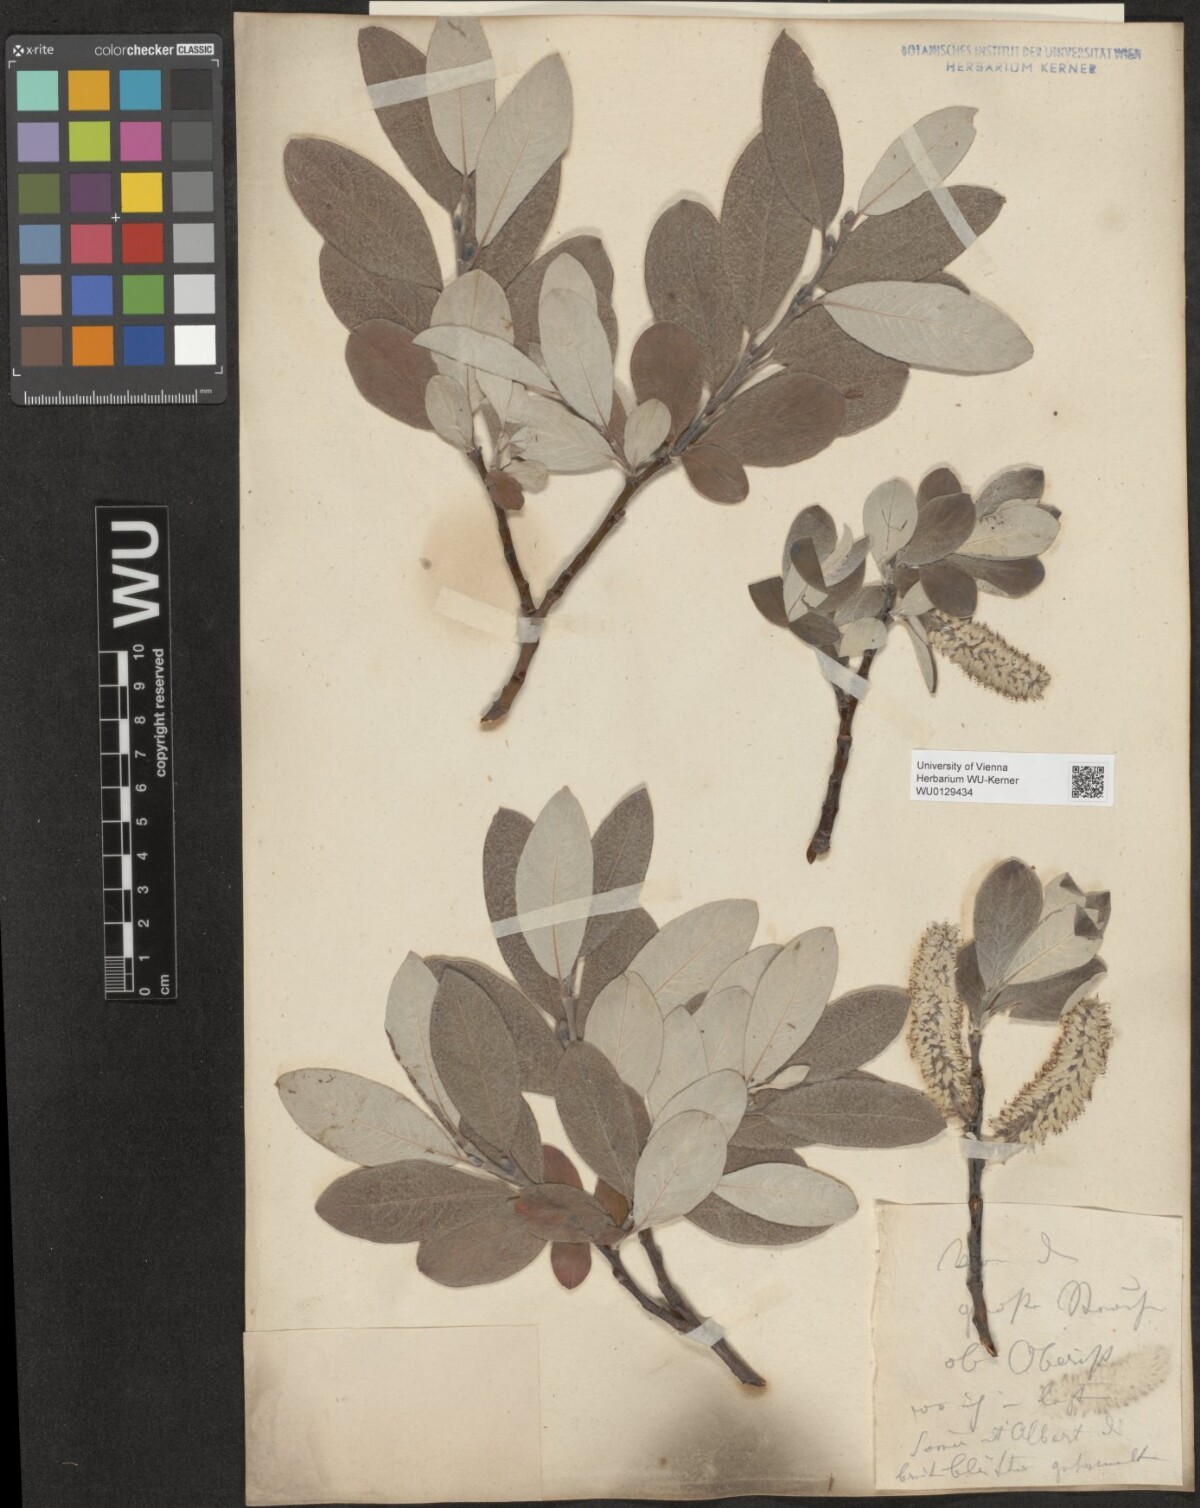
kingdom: Plantae
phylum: Tracheophyta
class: Magnoliopsida
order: Malpighiales
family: Salicaceae
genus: Salix
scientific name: Salix helvetica
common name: Swiss willow
